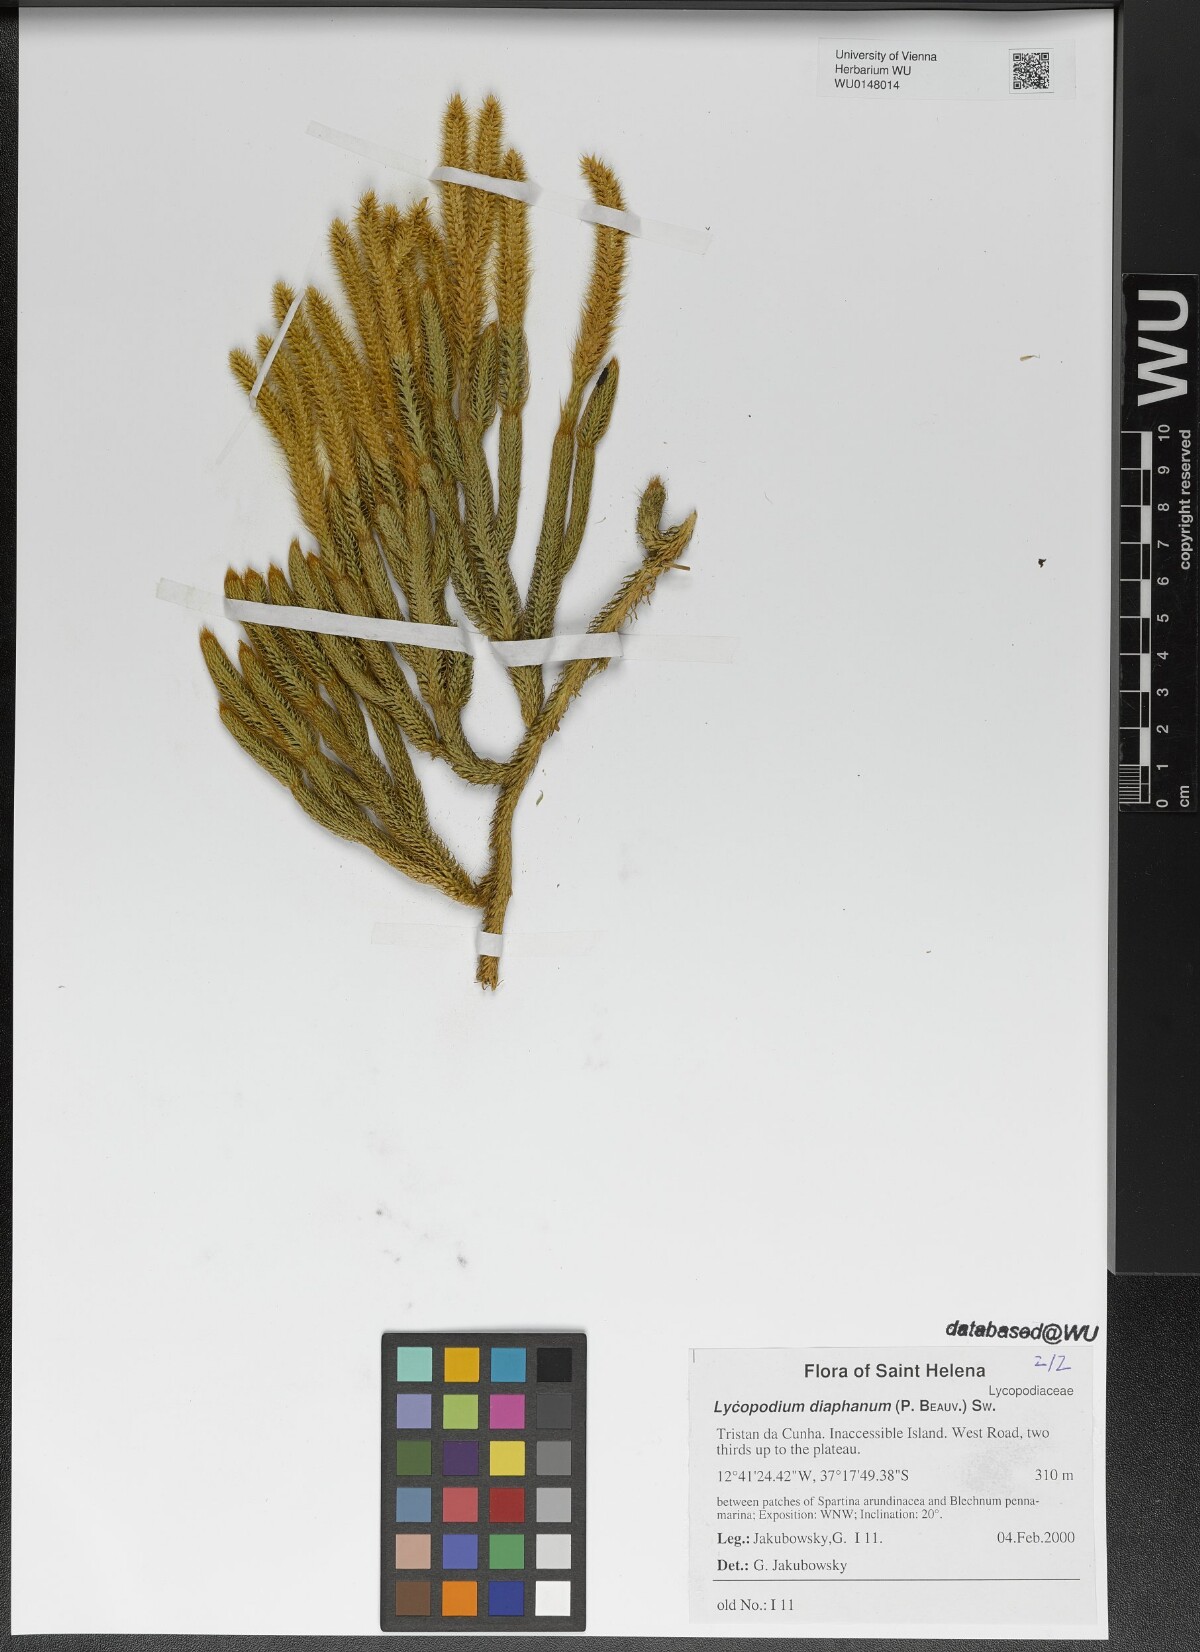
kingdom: Plantae
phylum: Tracheophyta
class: Lycopodiopsida
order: Lycopodiales
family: Lycopodiaceae
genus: Lycopodium
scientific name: Lycopodium diaphanum
